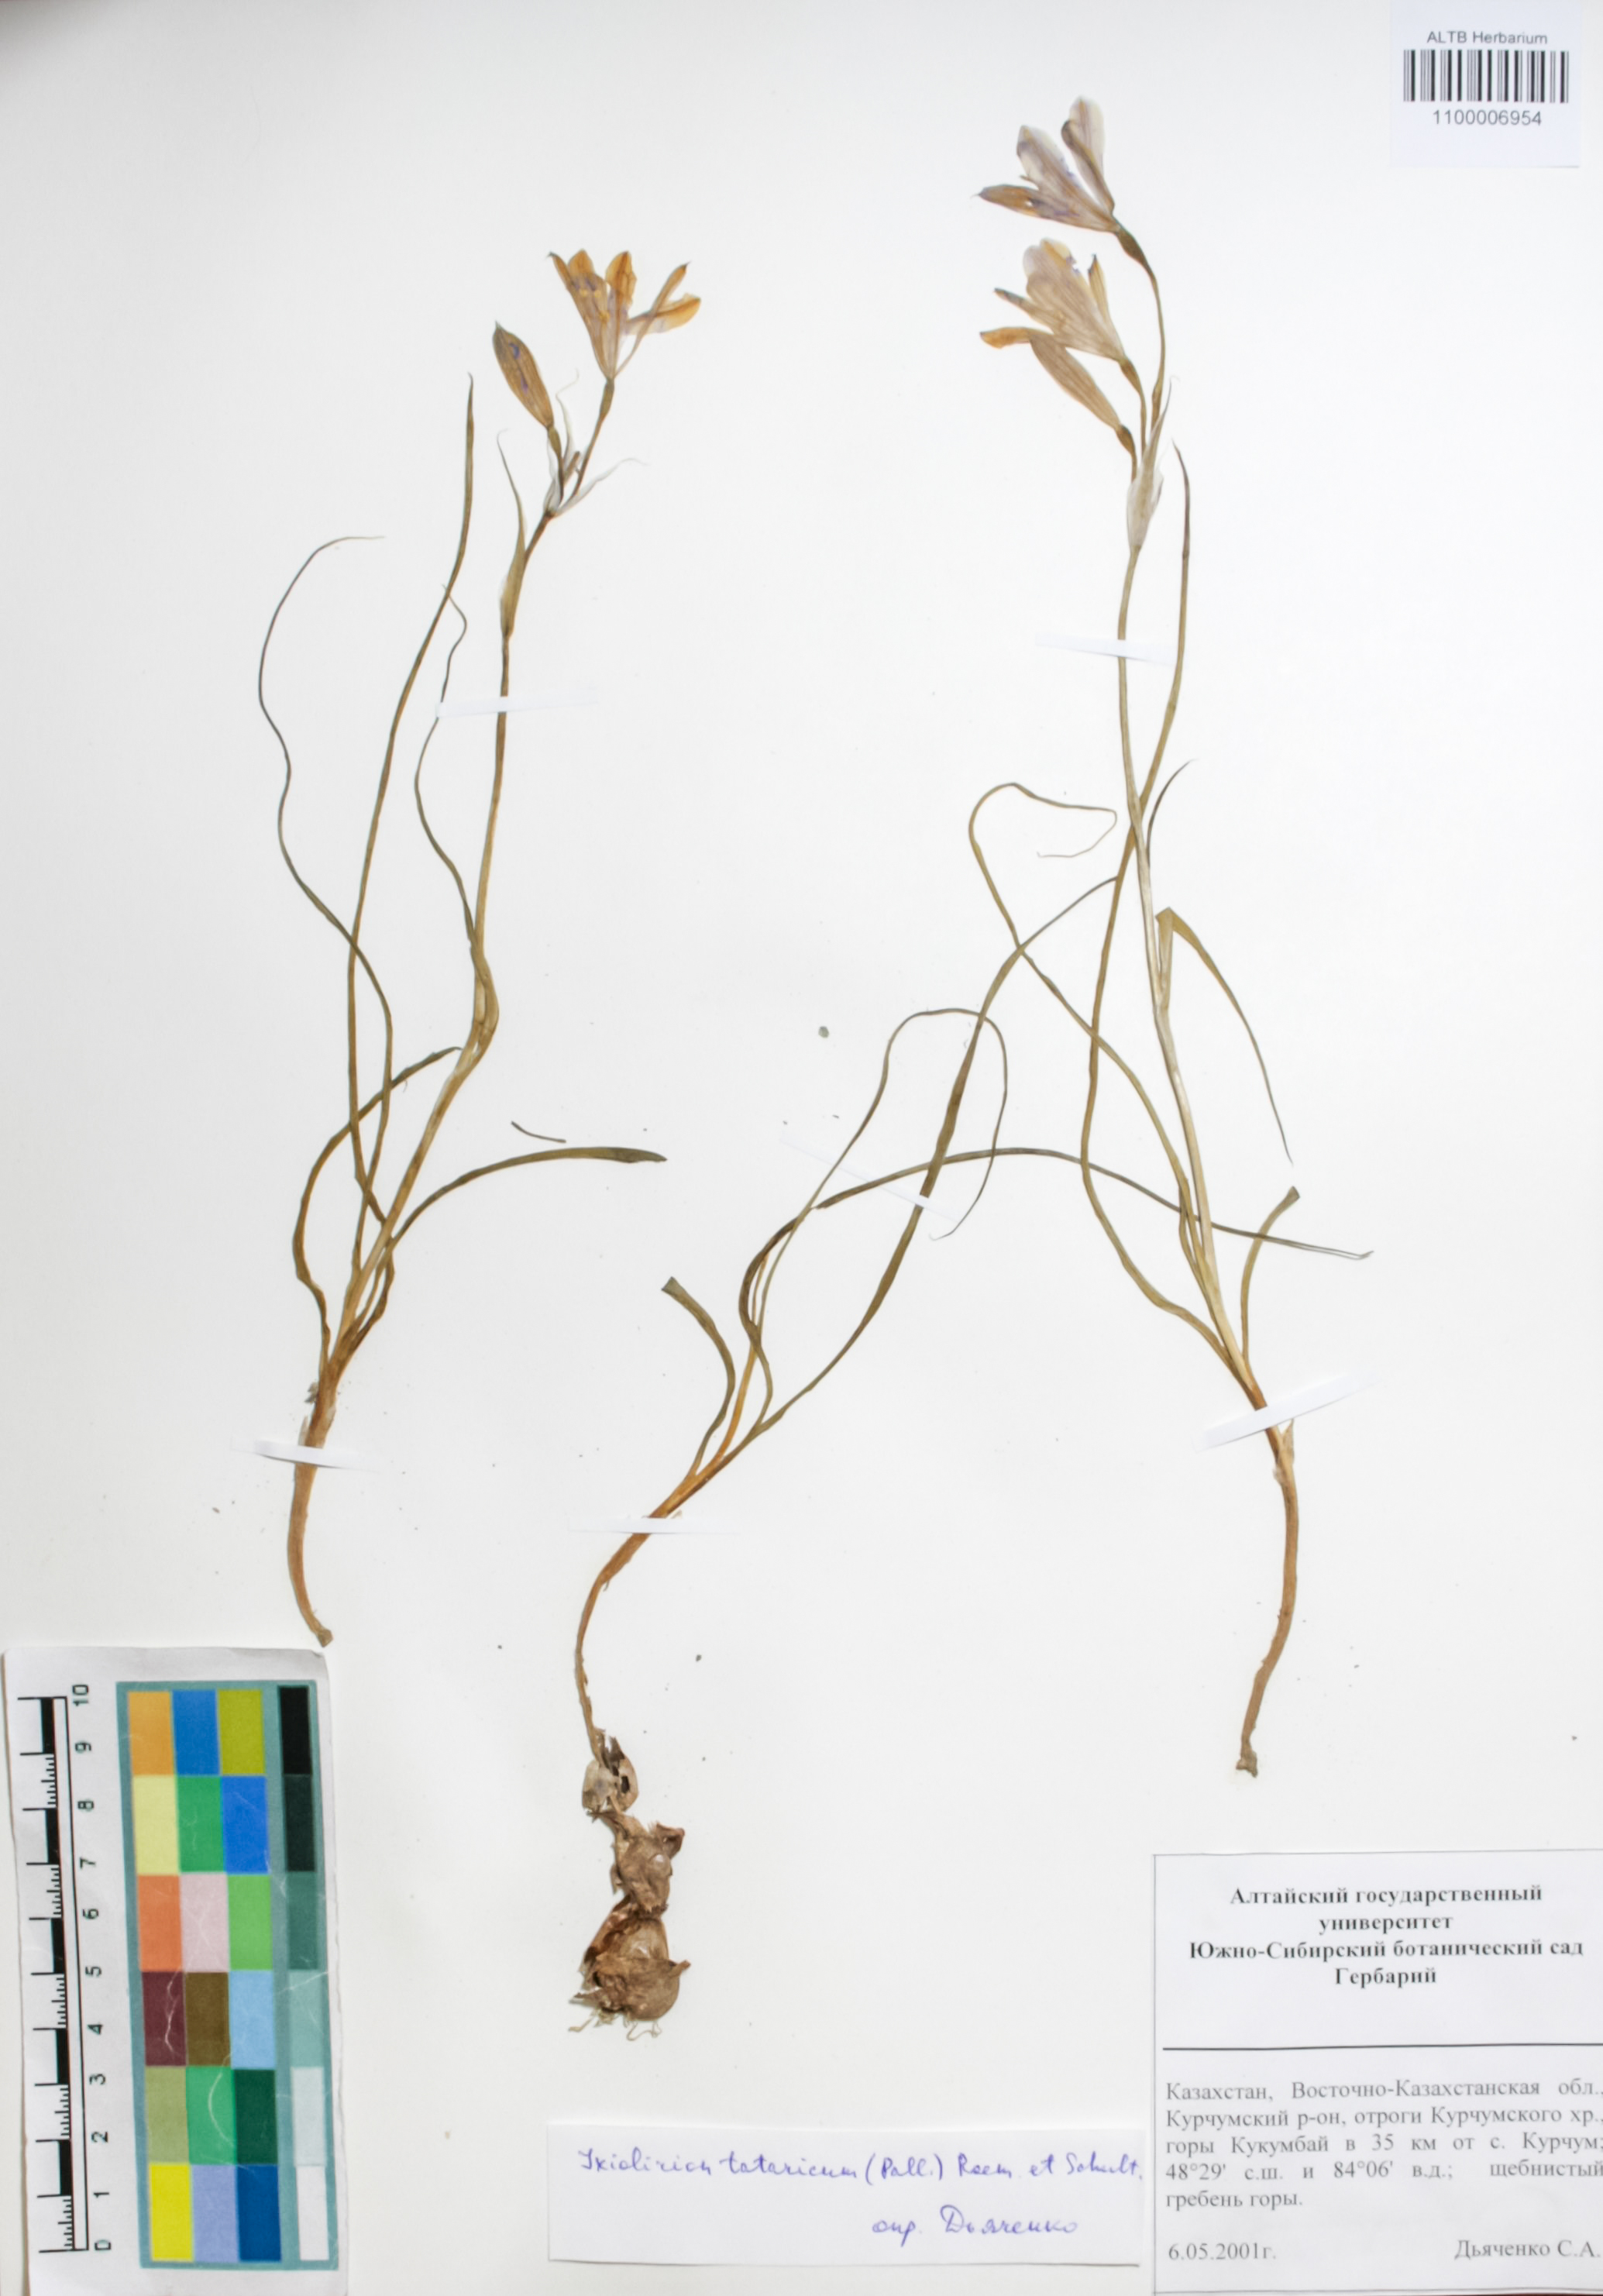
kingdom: Plantae
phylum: Tracheophyta
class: Liliopsida
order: Asparagales
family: Ixioliriaceae
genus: Ixiolirion
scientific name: Ixiolirion tataricum
